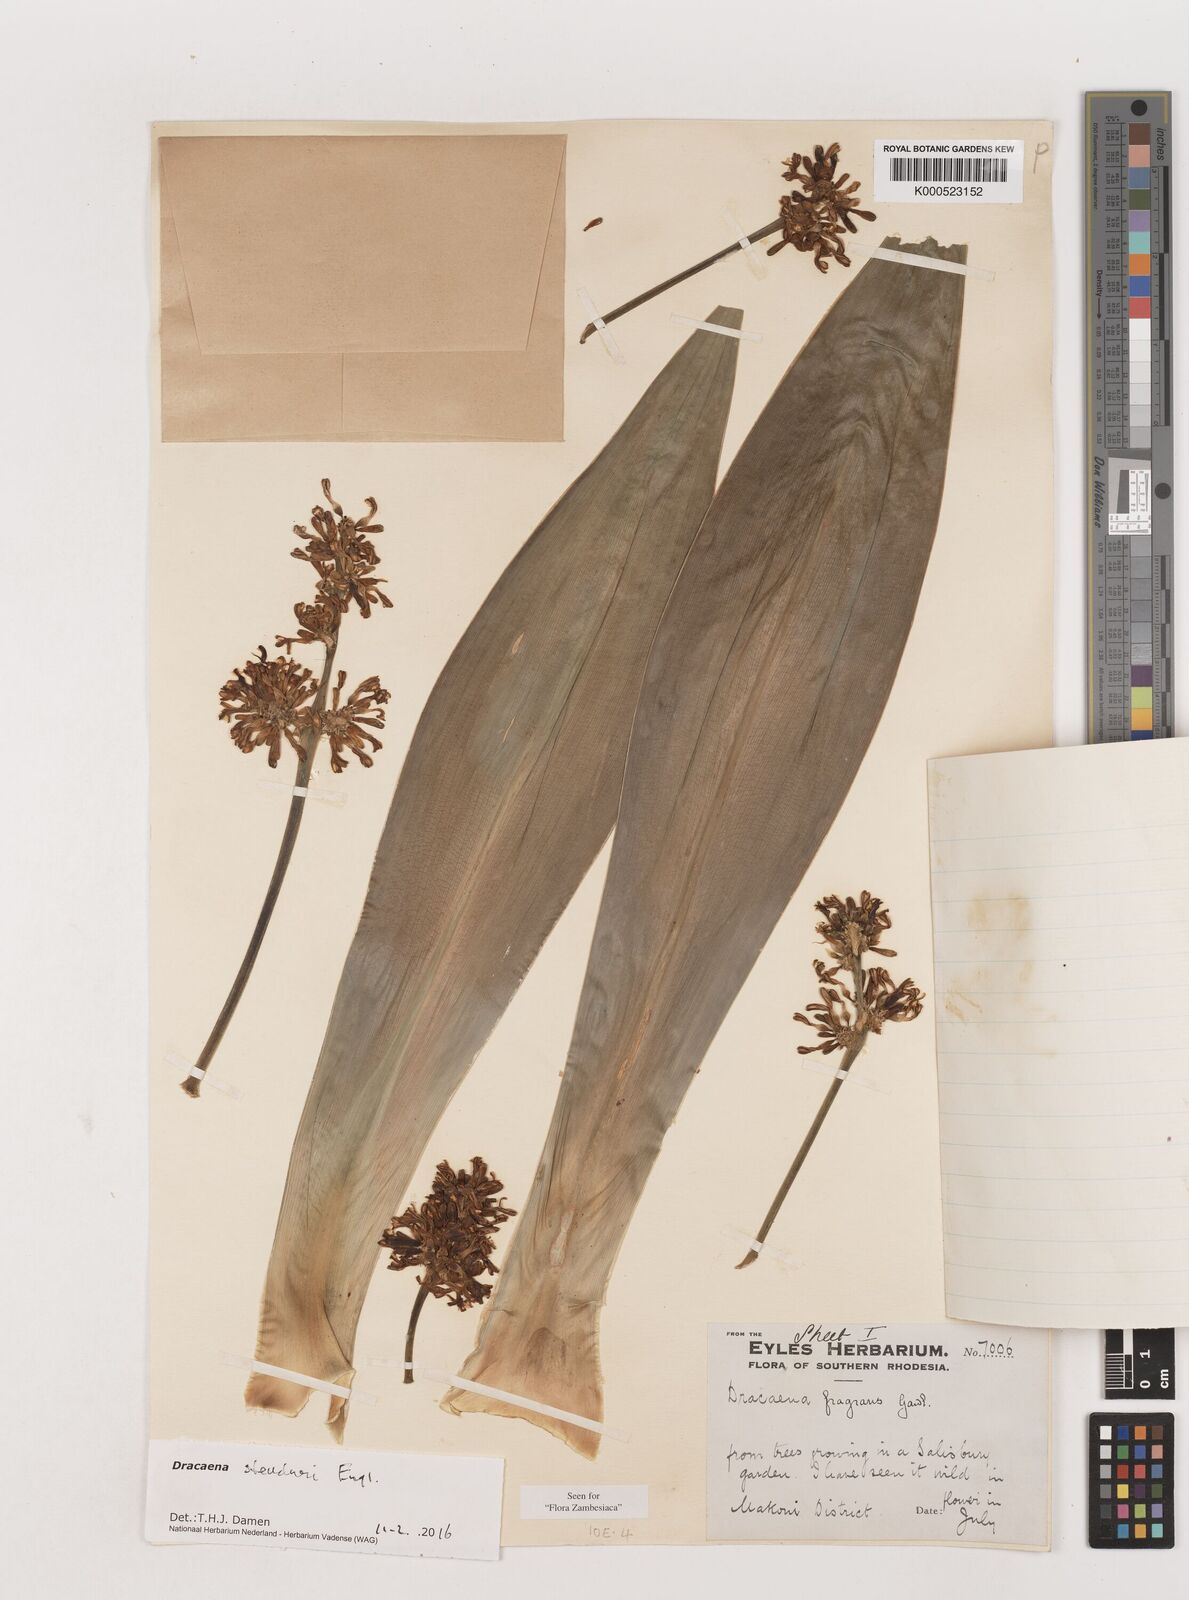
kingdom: Plantae
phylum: Tracheophyta
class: Liliopsida
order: Asparagales
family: Asparagaceae
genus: Dracaena
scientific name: Dracaena steudneri
